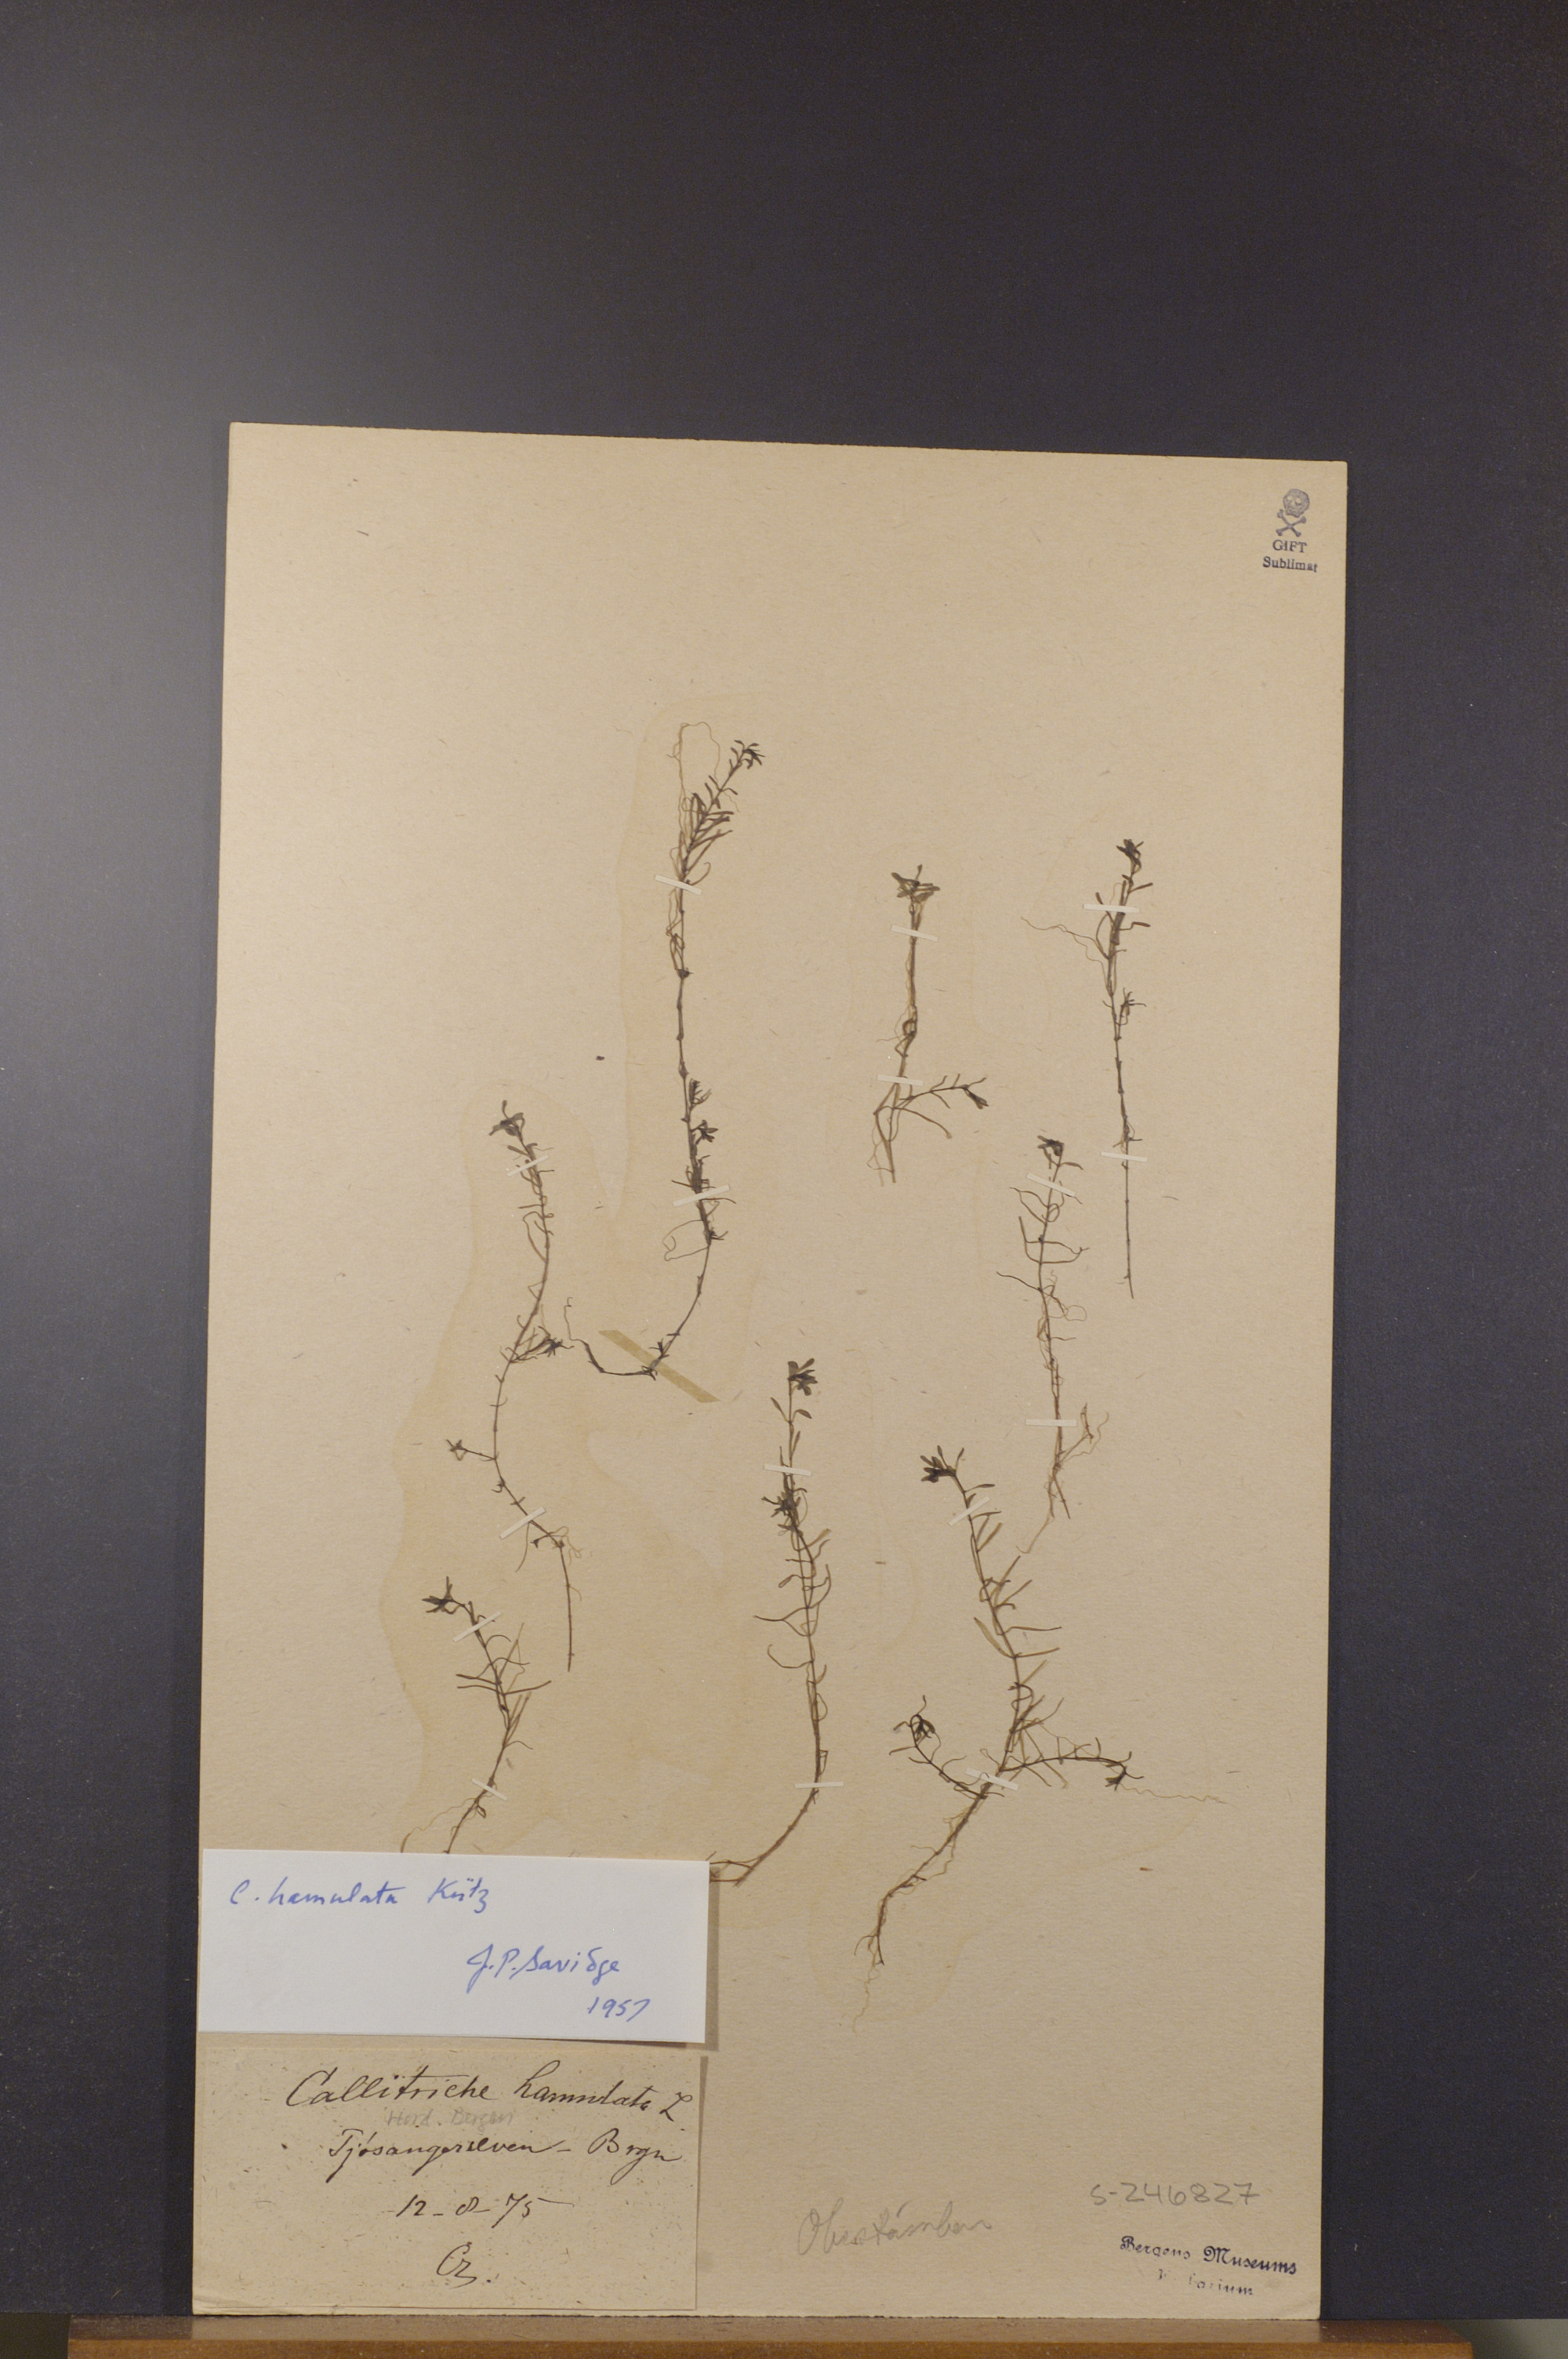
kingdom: Plantae
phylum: Tracheophyta
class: Magnoliopsida
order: Lamiales
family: Plantaginaceae
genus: Callitriche
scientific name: Callitriche hamulata
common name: Intermediate water-starwort
